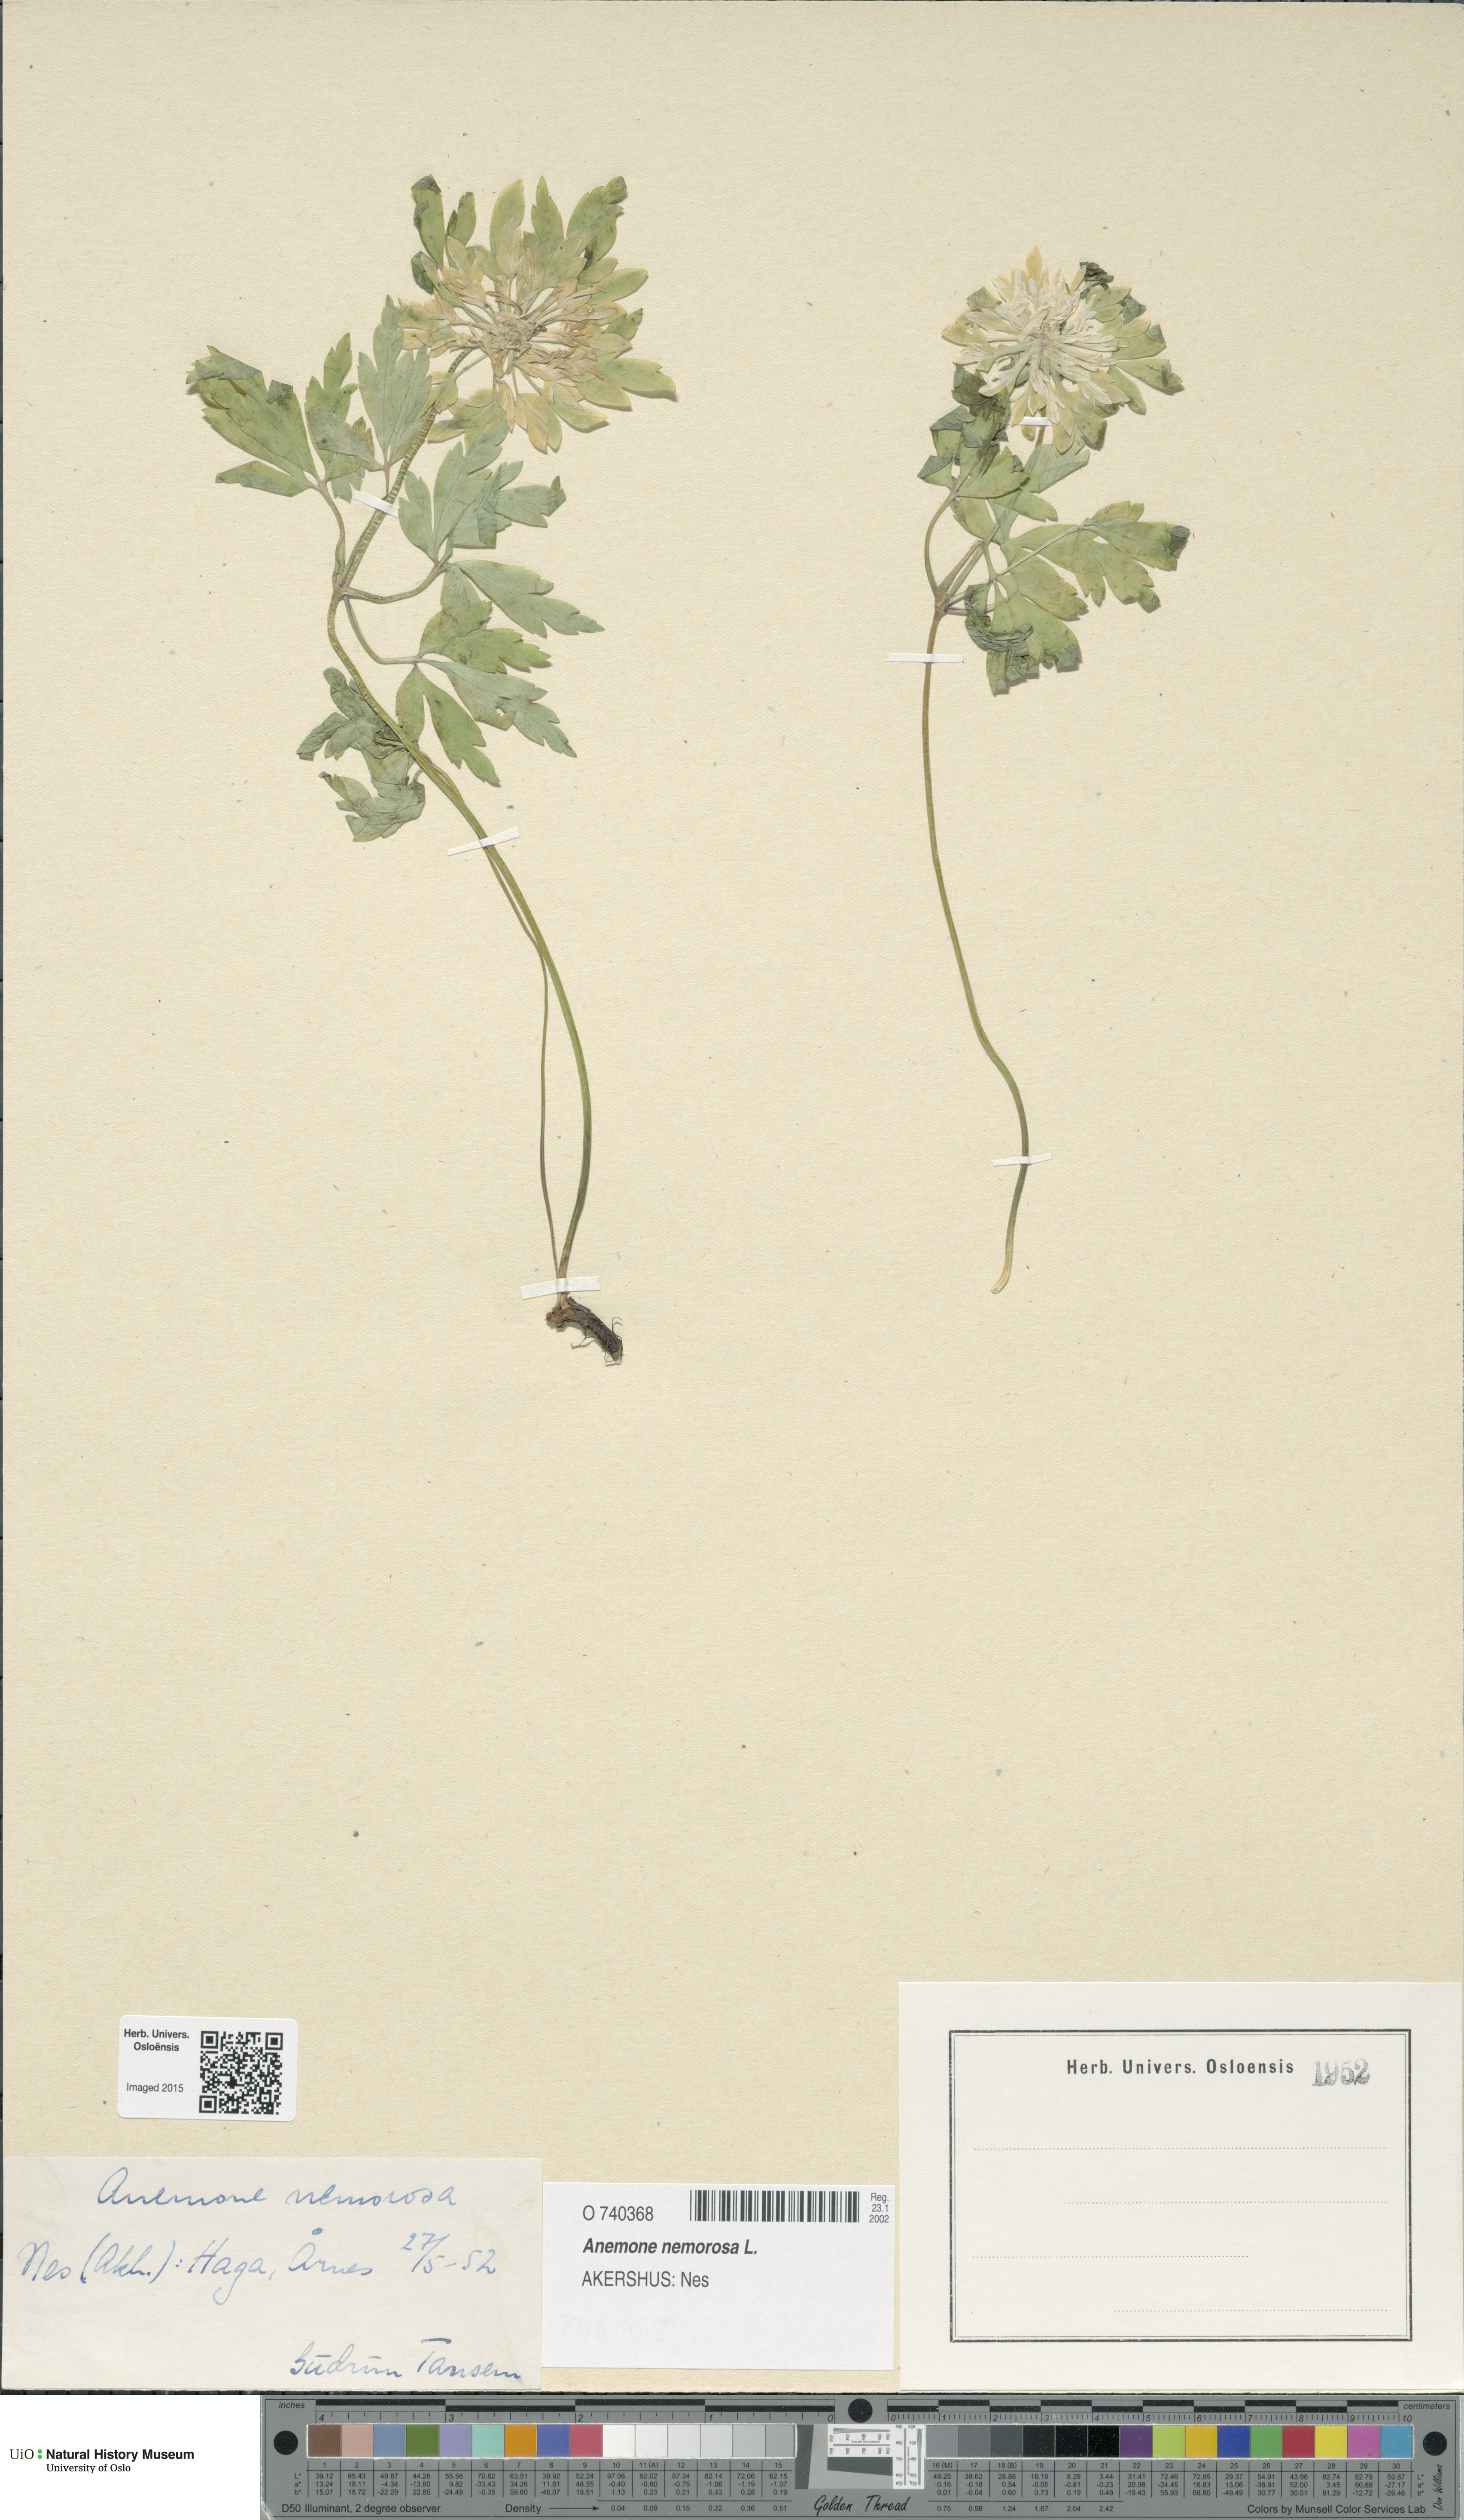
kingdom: Plantae
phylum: Tracheophyta
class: Magnoliopsida
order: Ranunculales
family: Ranunculaceae
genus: Anemone
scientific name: Anemone nemorosa
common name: Wood anemone
